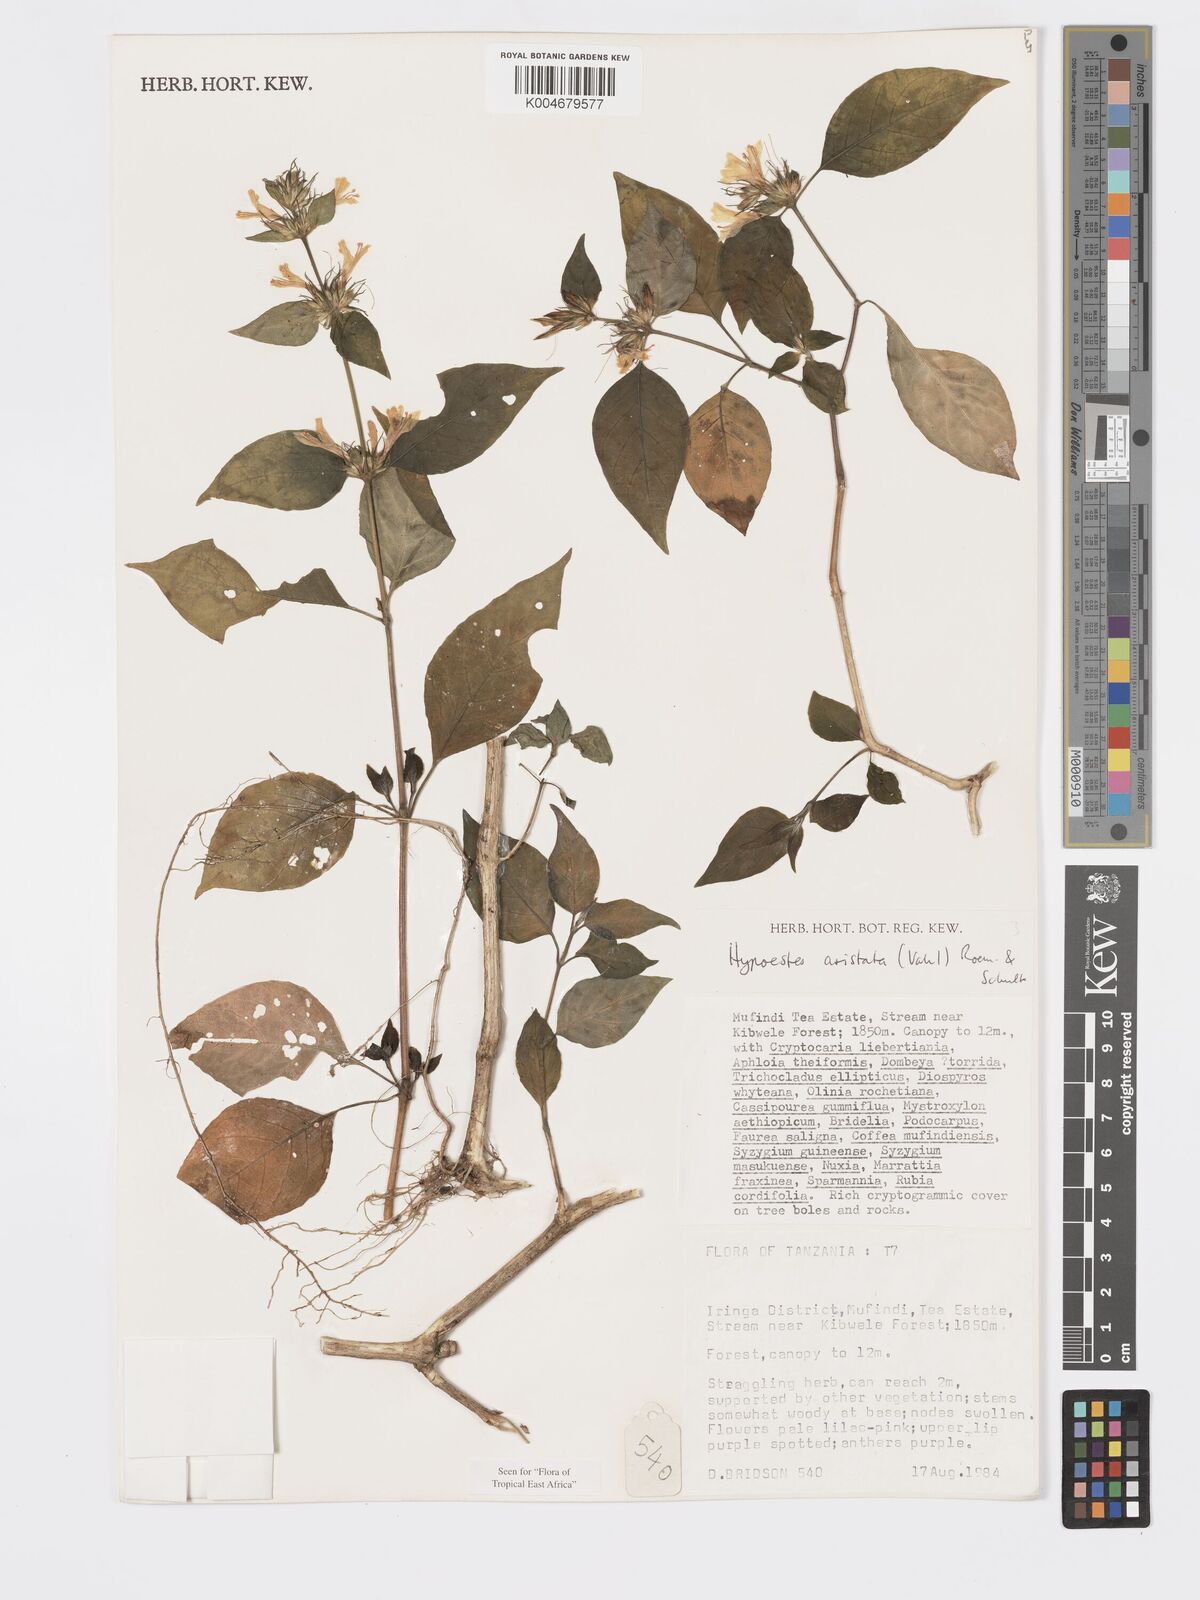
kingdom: Plantae
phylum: Tracheophyta
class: Magnoliopsida
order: Lamiales
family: Acanthaceae
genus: Hypoestes
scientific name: Hypoestes aristata
